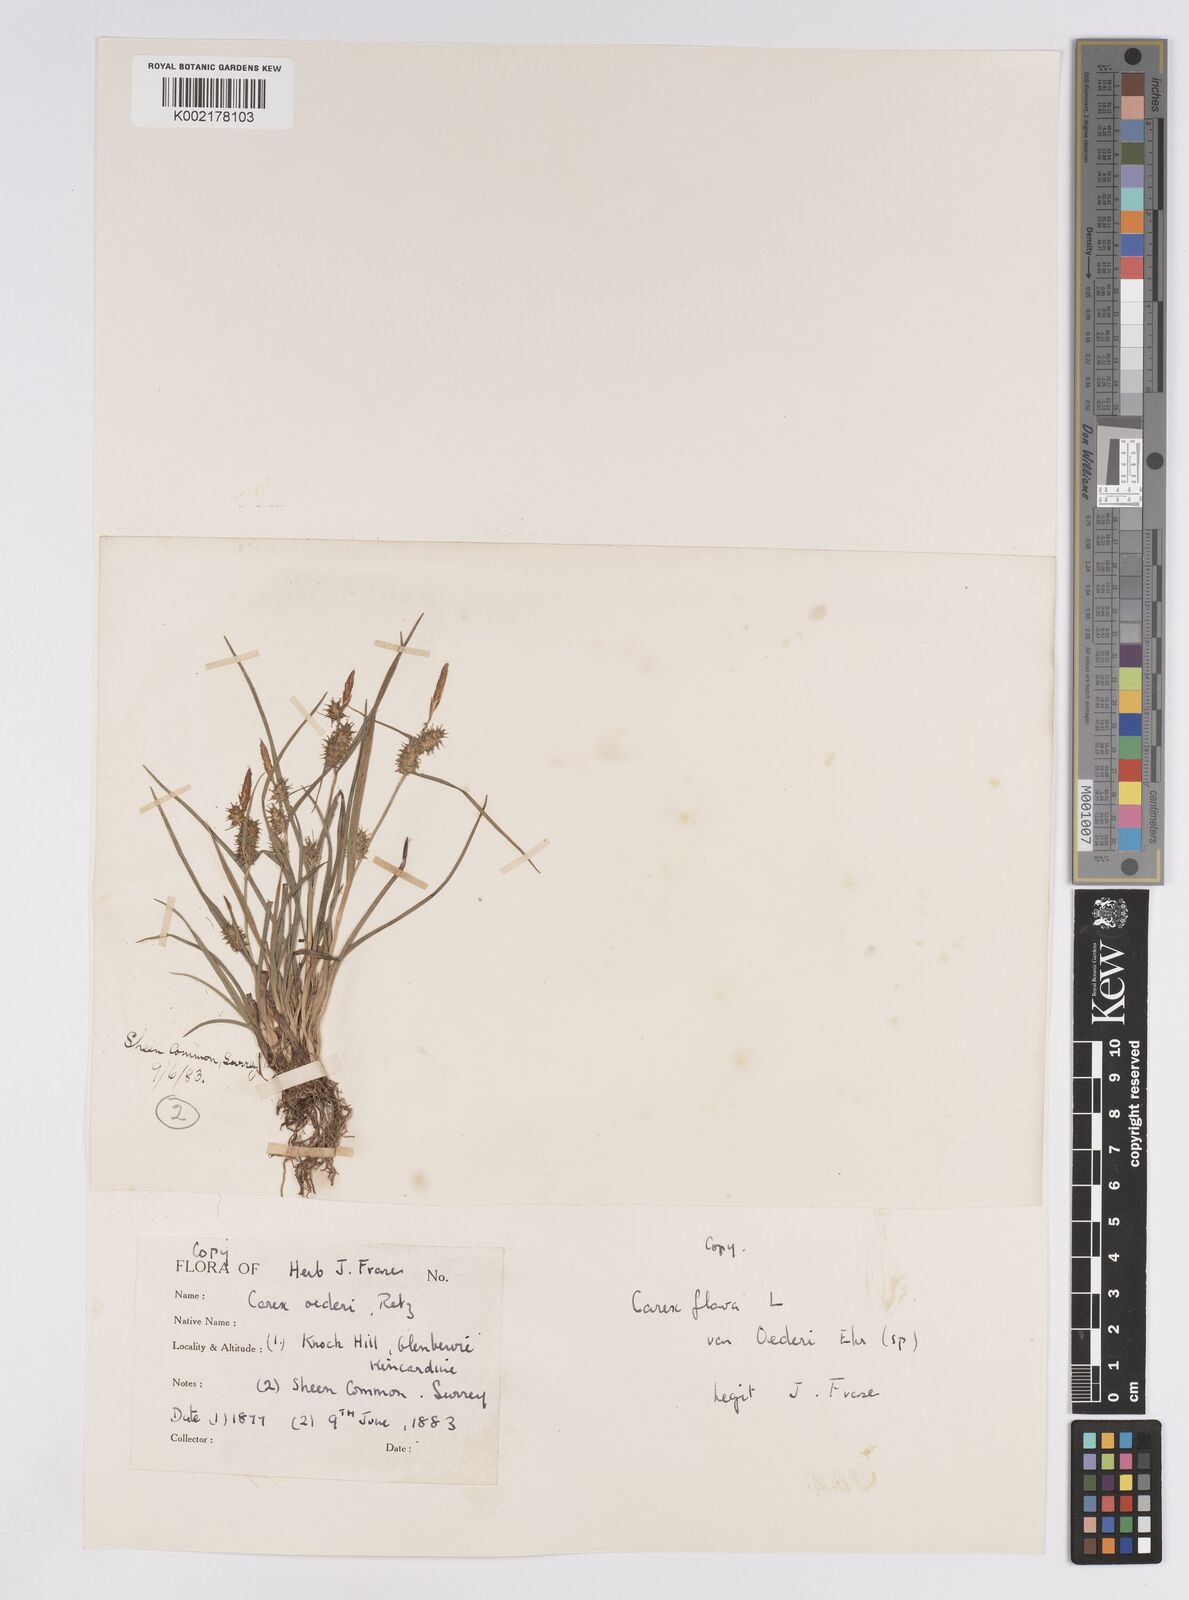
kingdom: Plantae
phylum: Tracheophyta
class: Liliopsida
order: Poales
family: Cyperaceae
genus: Carex
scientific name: Carex demissa
